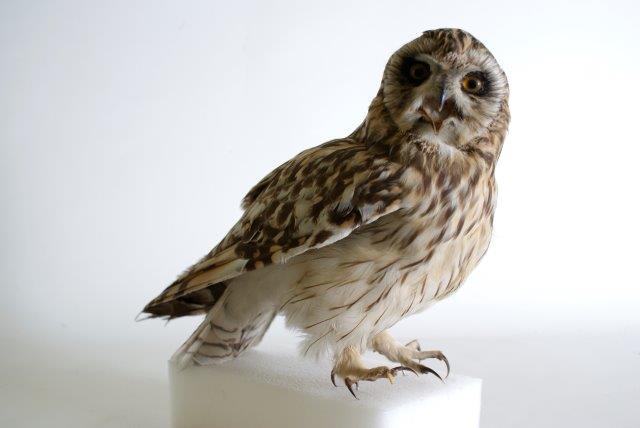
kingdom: Animalia
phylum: Chordata
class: Aves
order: Strigiformes
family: Strigidae
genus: Asio
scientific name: Asio flammeus
